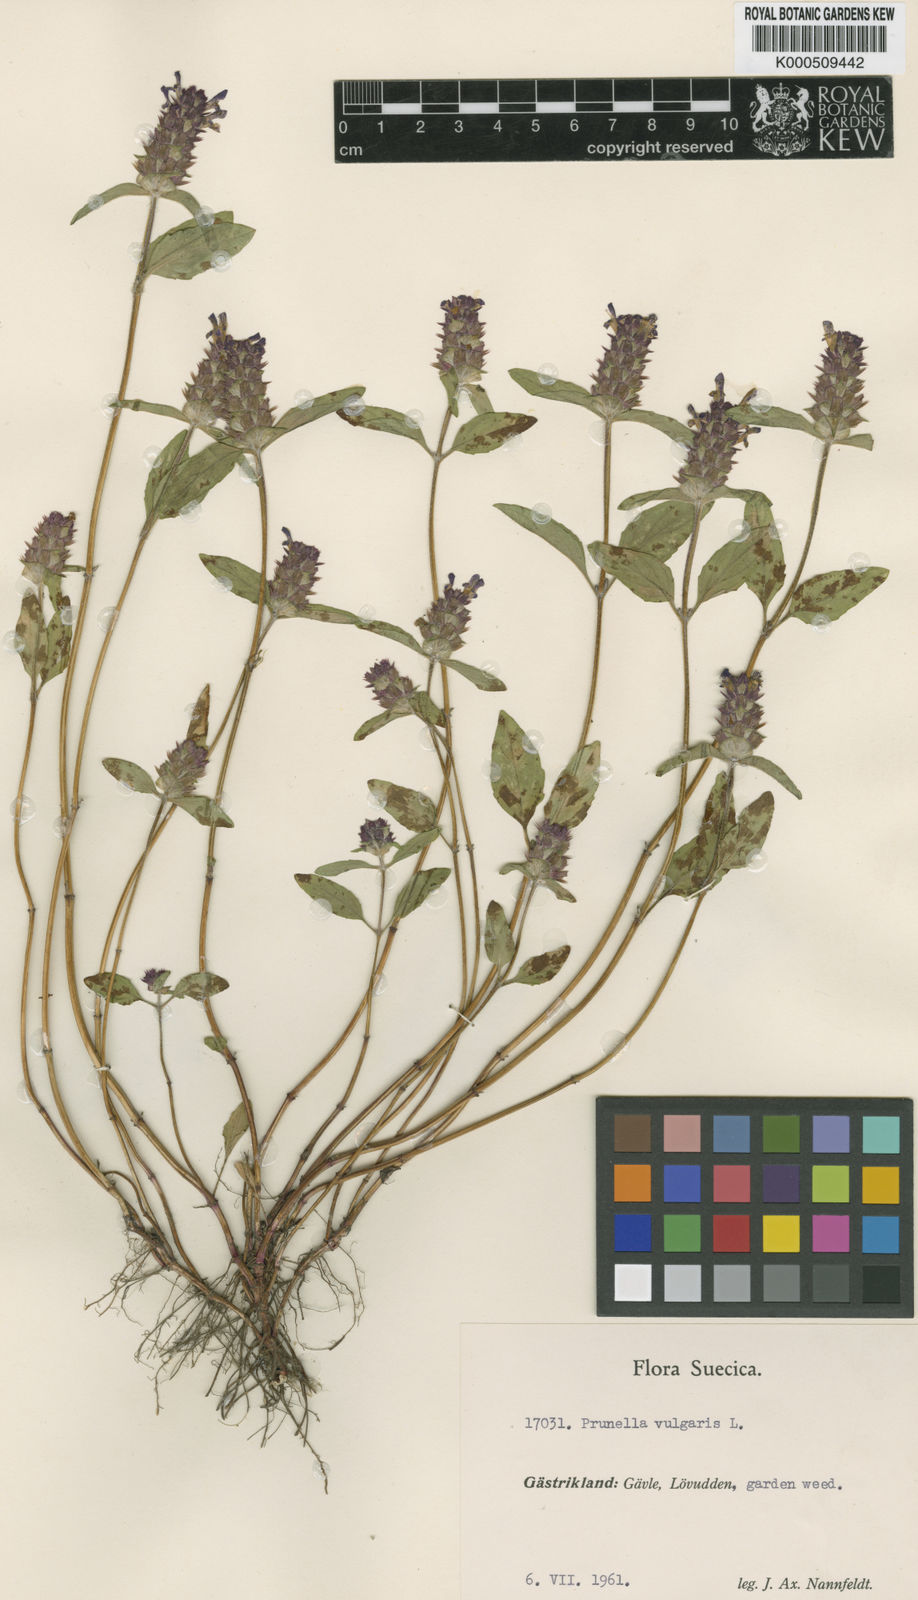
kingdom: Plantae
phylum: Tracheophyta
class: Magnoliopsida
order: Lamiales
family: Lamiaceae
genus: Prunella
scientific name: Prunella vulgaris
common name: Heal-all
